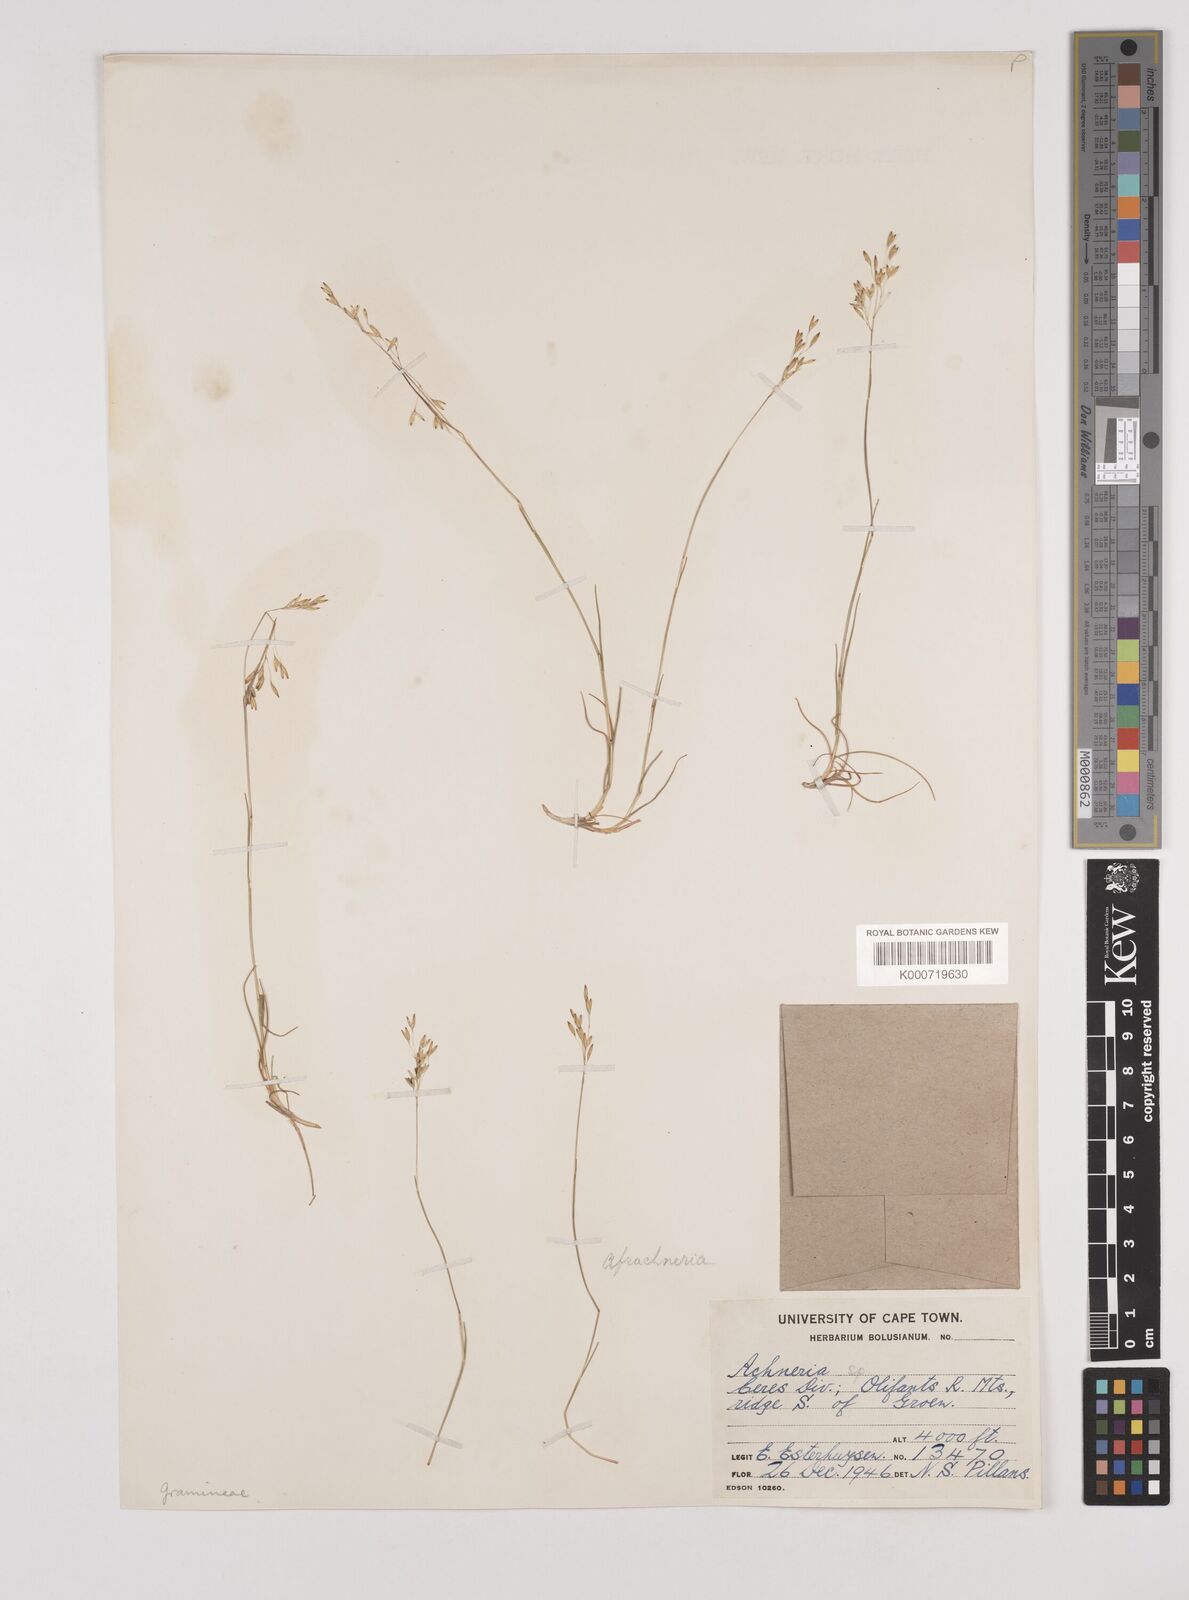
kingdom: Plantae
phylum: Tracheophyta
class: Liliopsida
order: Poales
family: Poaceae
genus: Pentameris
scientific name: Pentameris malouinensis
